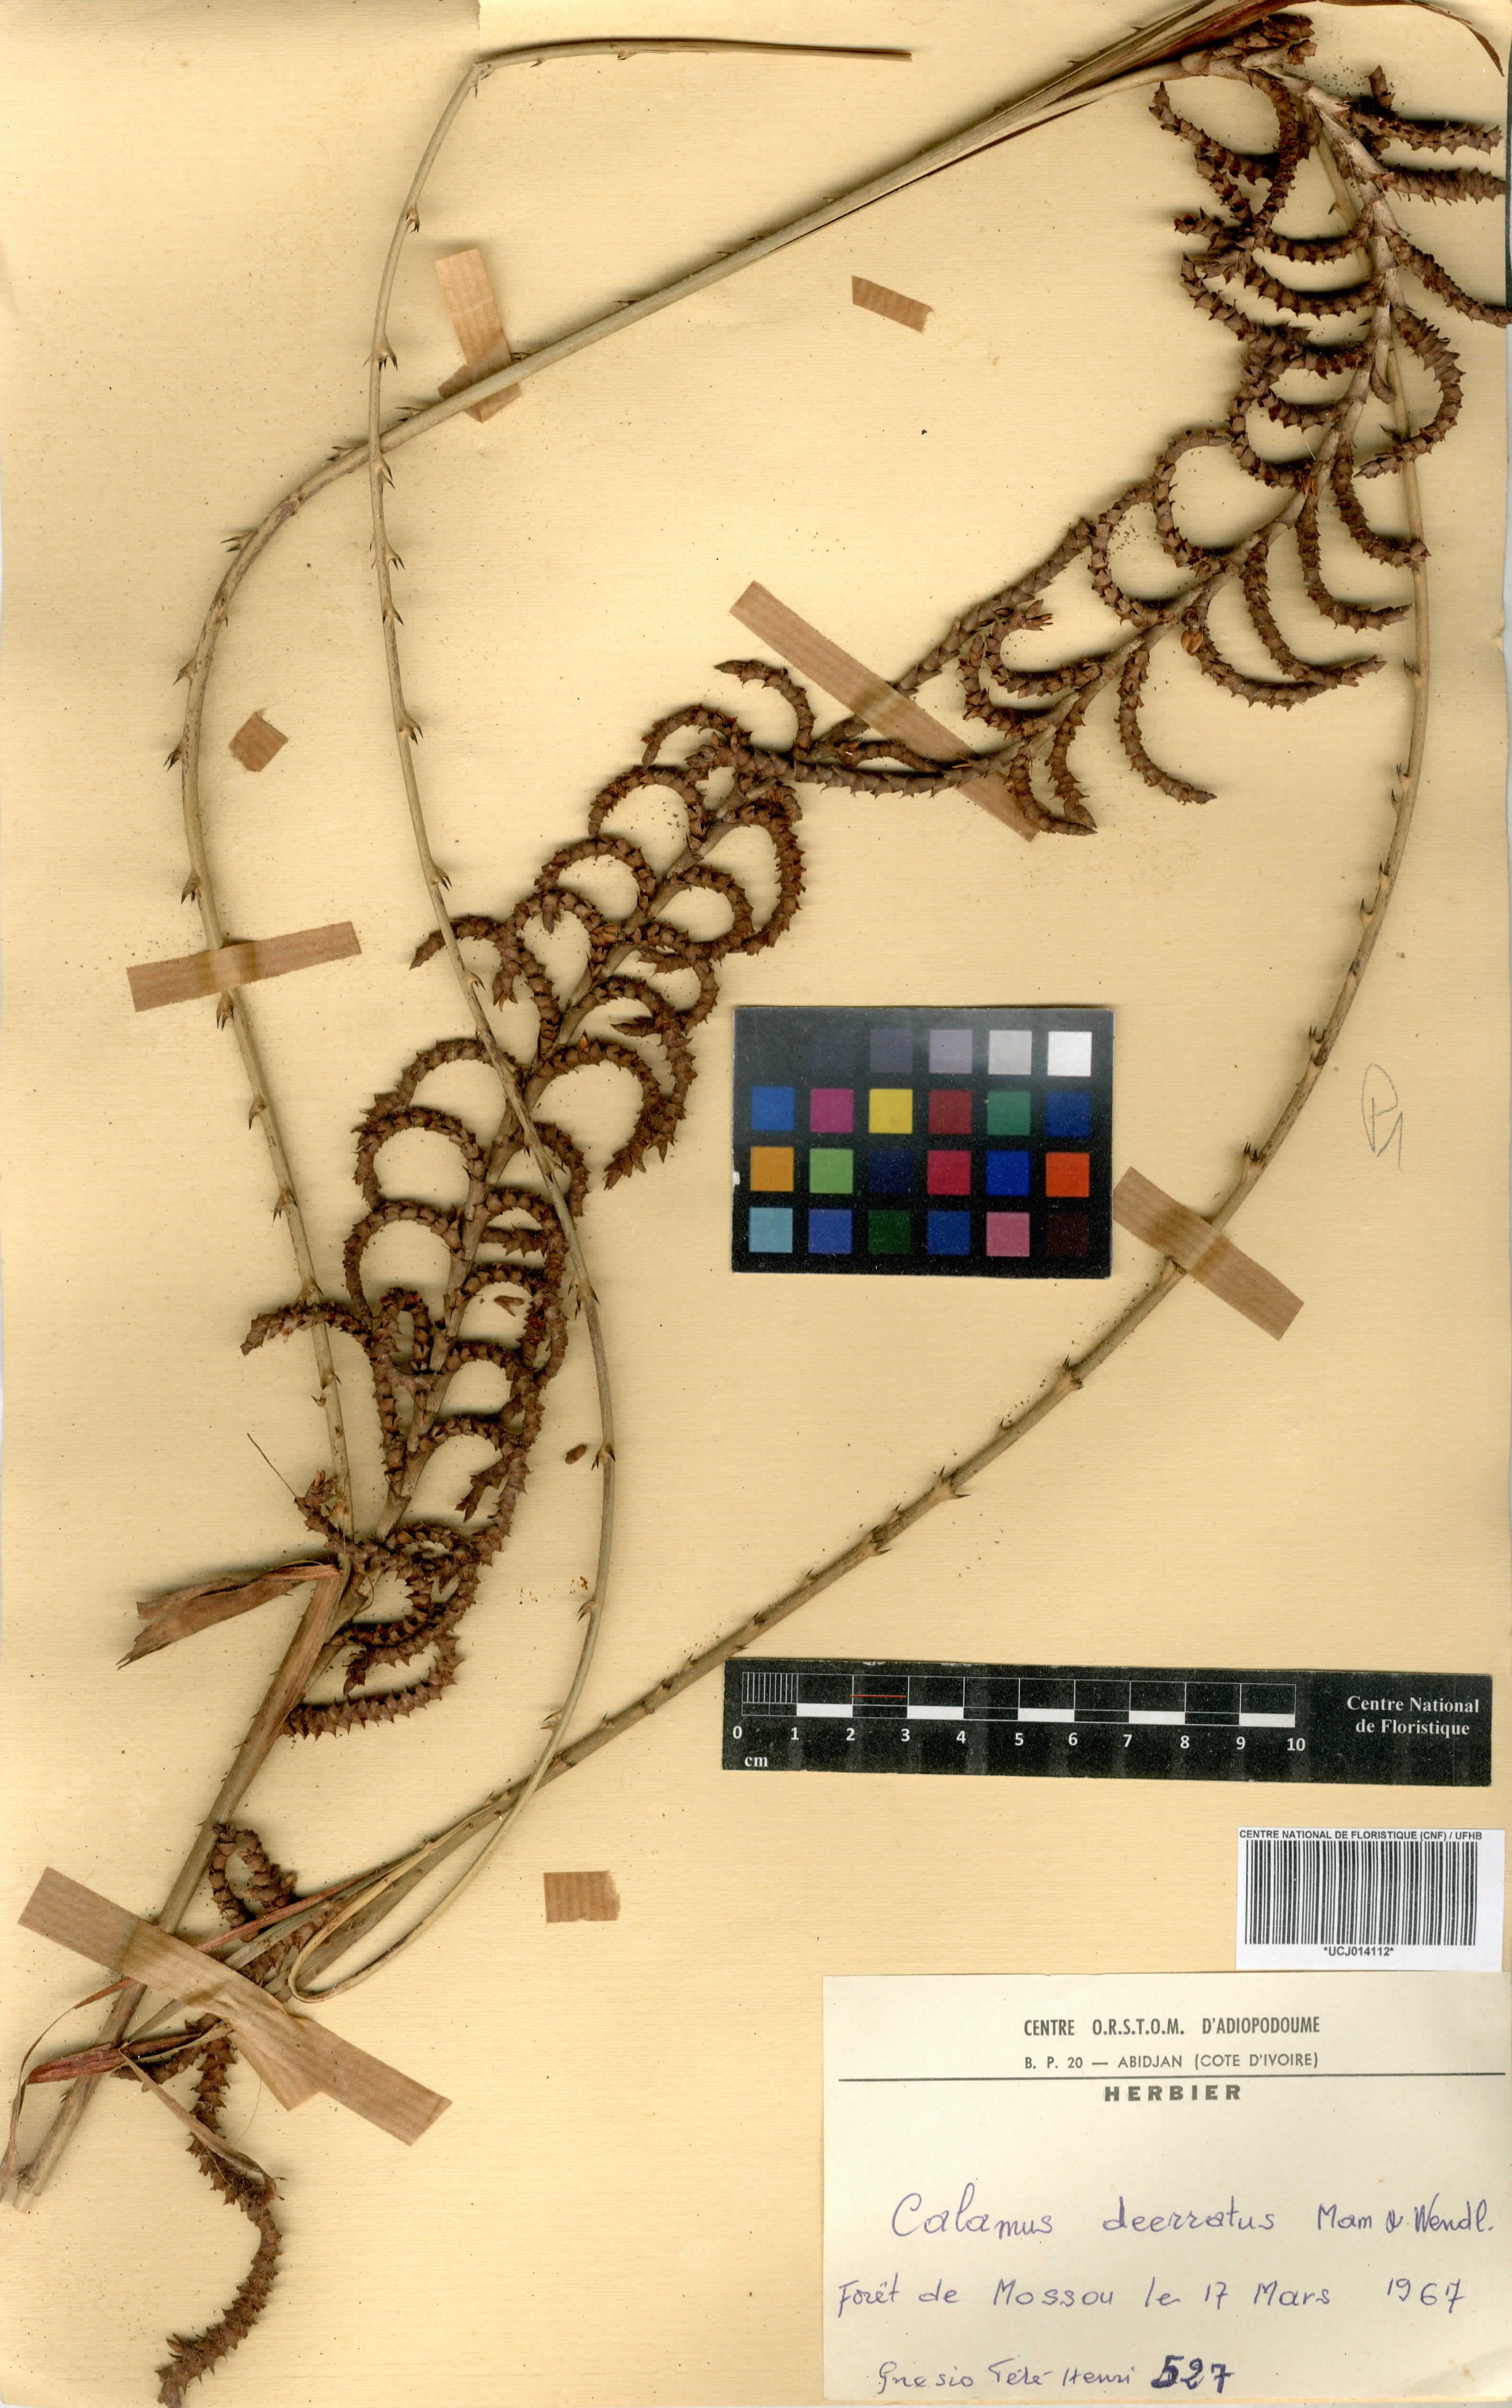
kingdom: Plantae
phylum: Tracheophyta
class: Liliopsida
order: Arecales
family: Arecaceae
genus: Calamus
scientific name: Calamus deerratus
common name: Rattan
